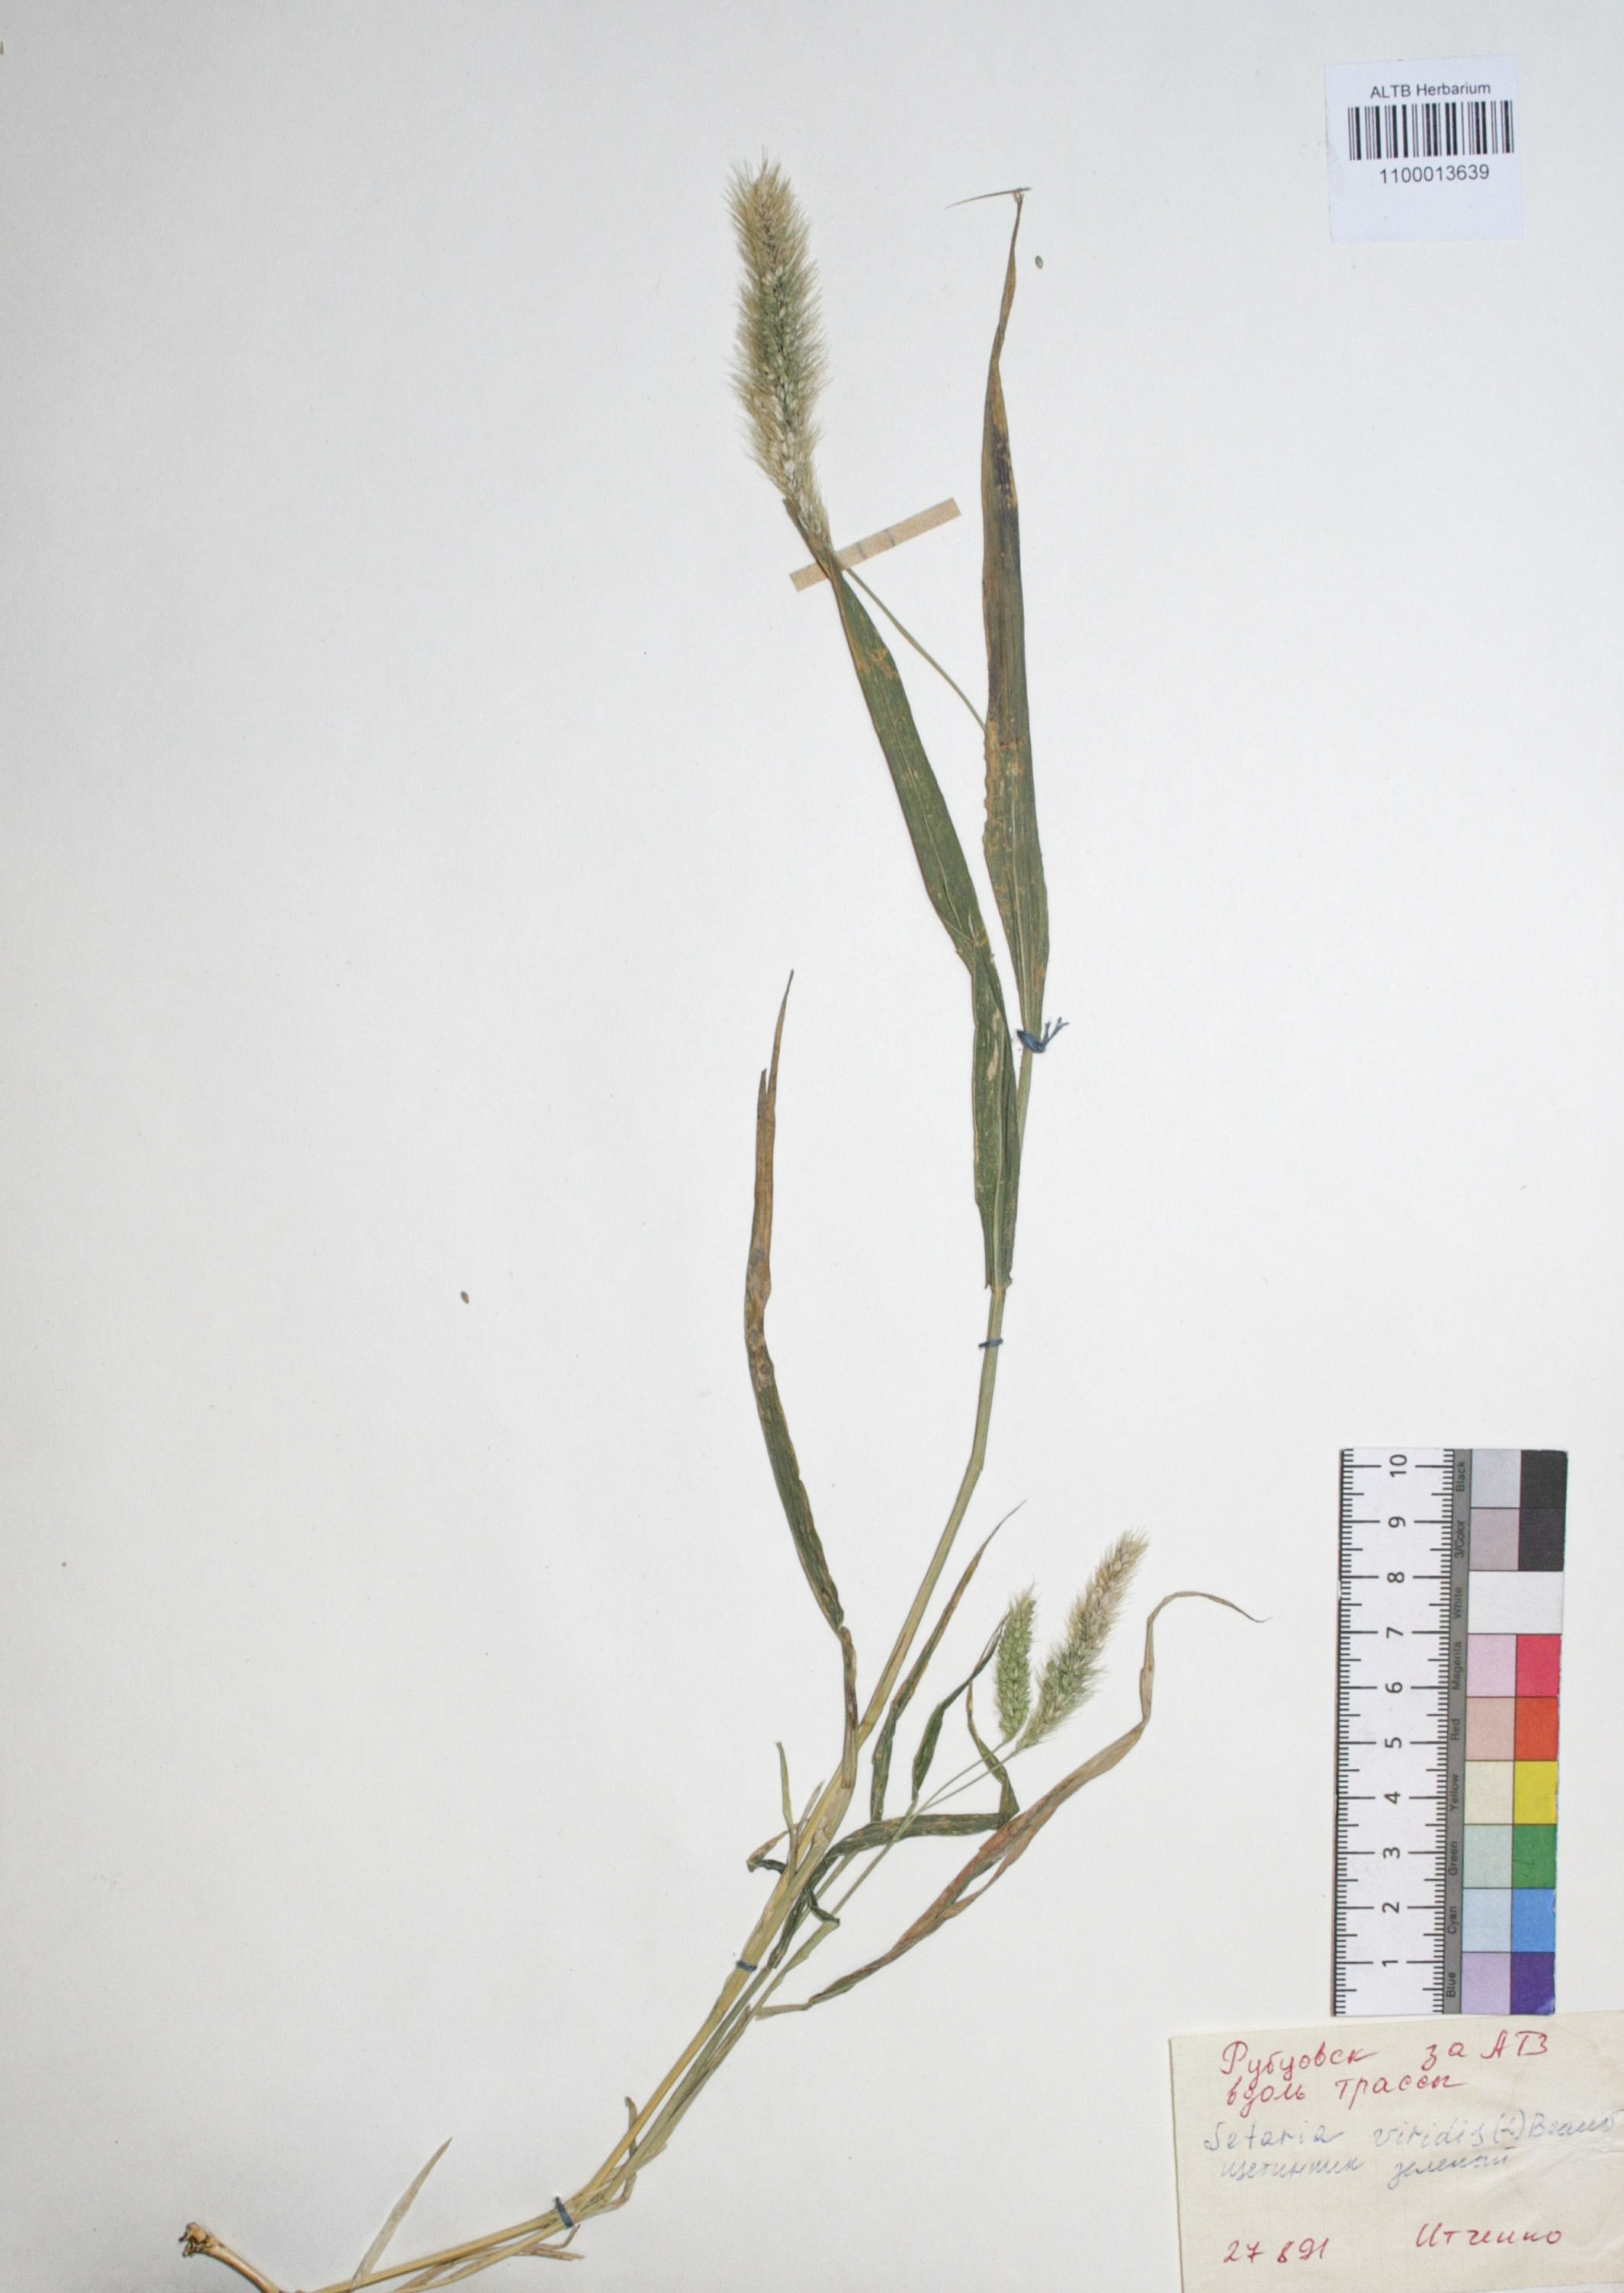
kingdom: Plantae
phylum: Tracheophyta
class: Liliopsida
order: Poales
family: Poaceae
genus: Setaria
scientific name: Setaria viridis
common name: Green bristlegrass
